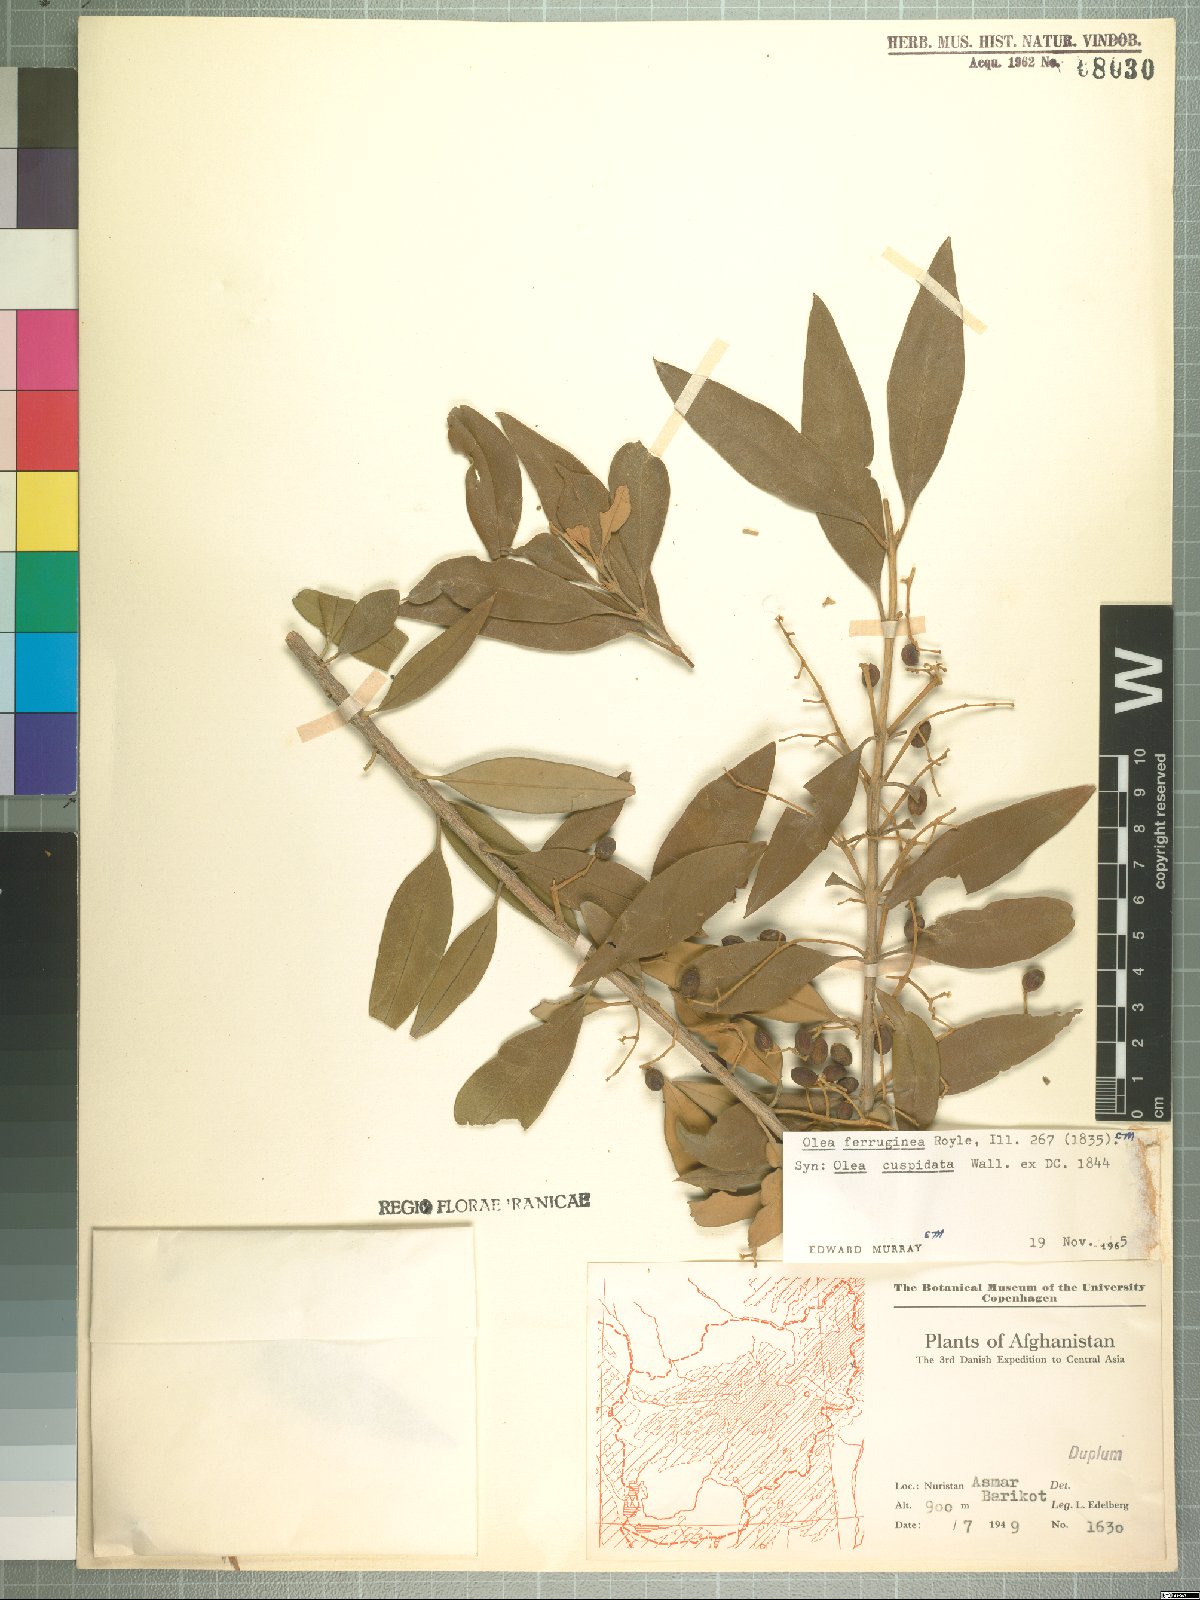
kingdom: Plantae
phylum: Tracheophyta
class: Magnoliopsida
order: Lamiales
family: Oleaceae
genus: Olea
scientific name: Olea europaea
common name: Olive
